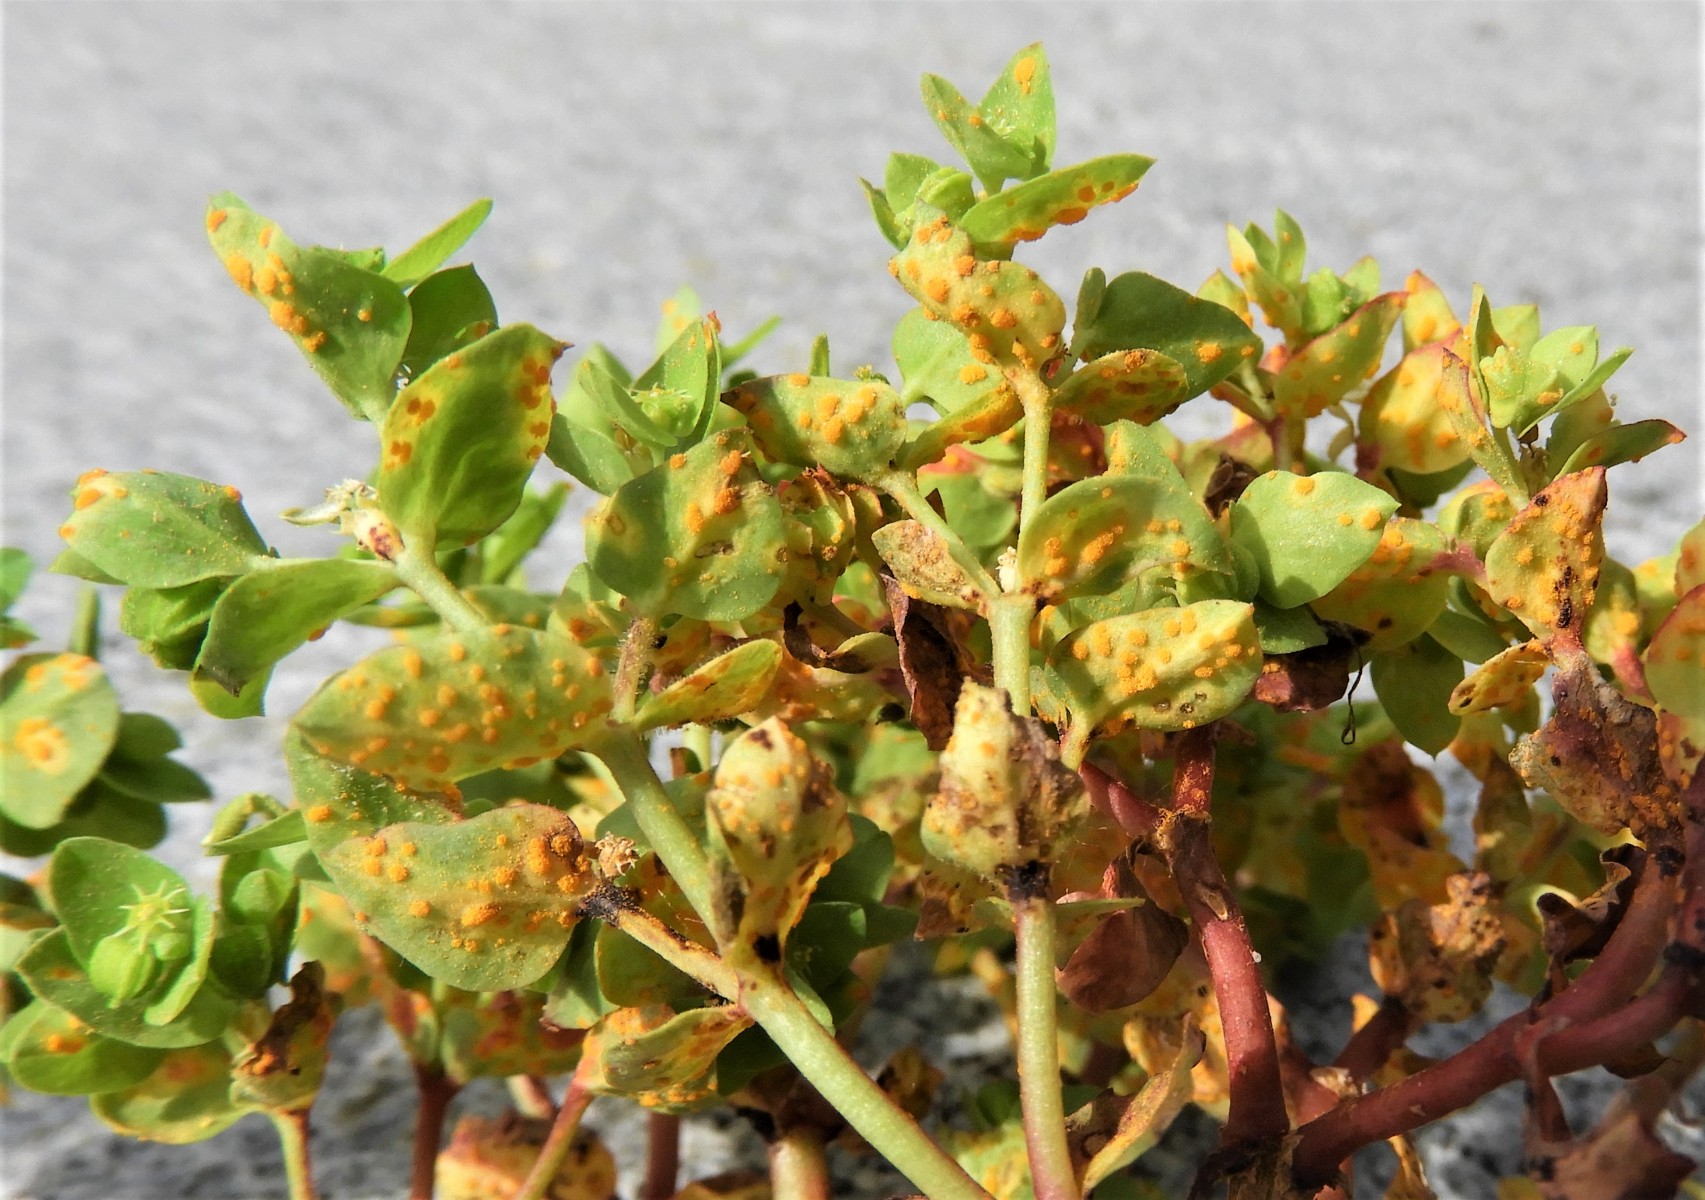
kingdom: Fungi
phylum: Basidiomycota
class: Pucciniomycetes
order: Pucciniales
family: Melampsoraceae
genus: Melampsora
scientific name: Melampsora euphorbiae
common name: vortemælk-skorperust
